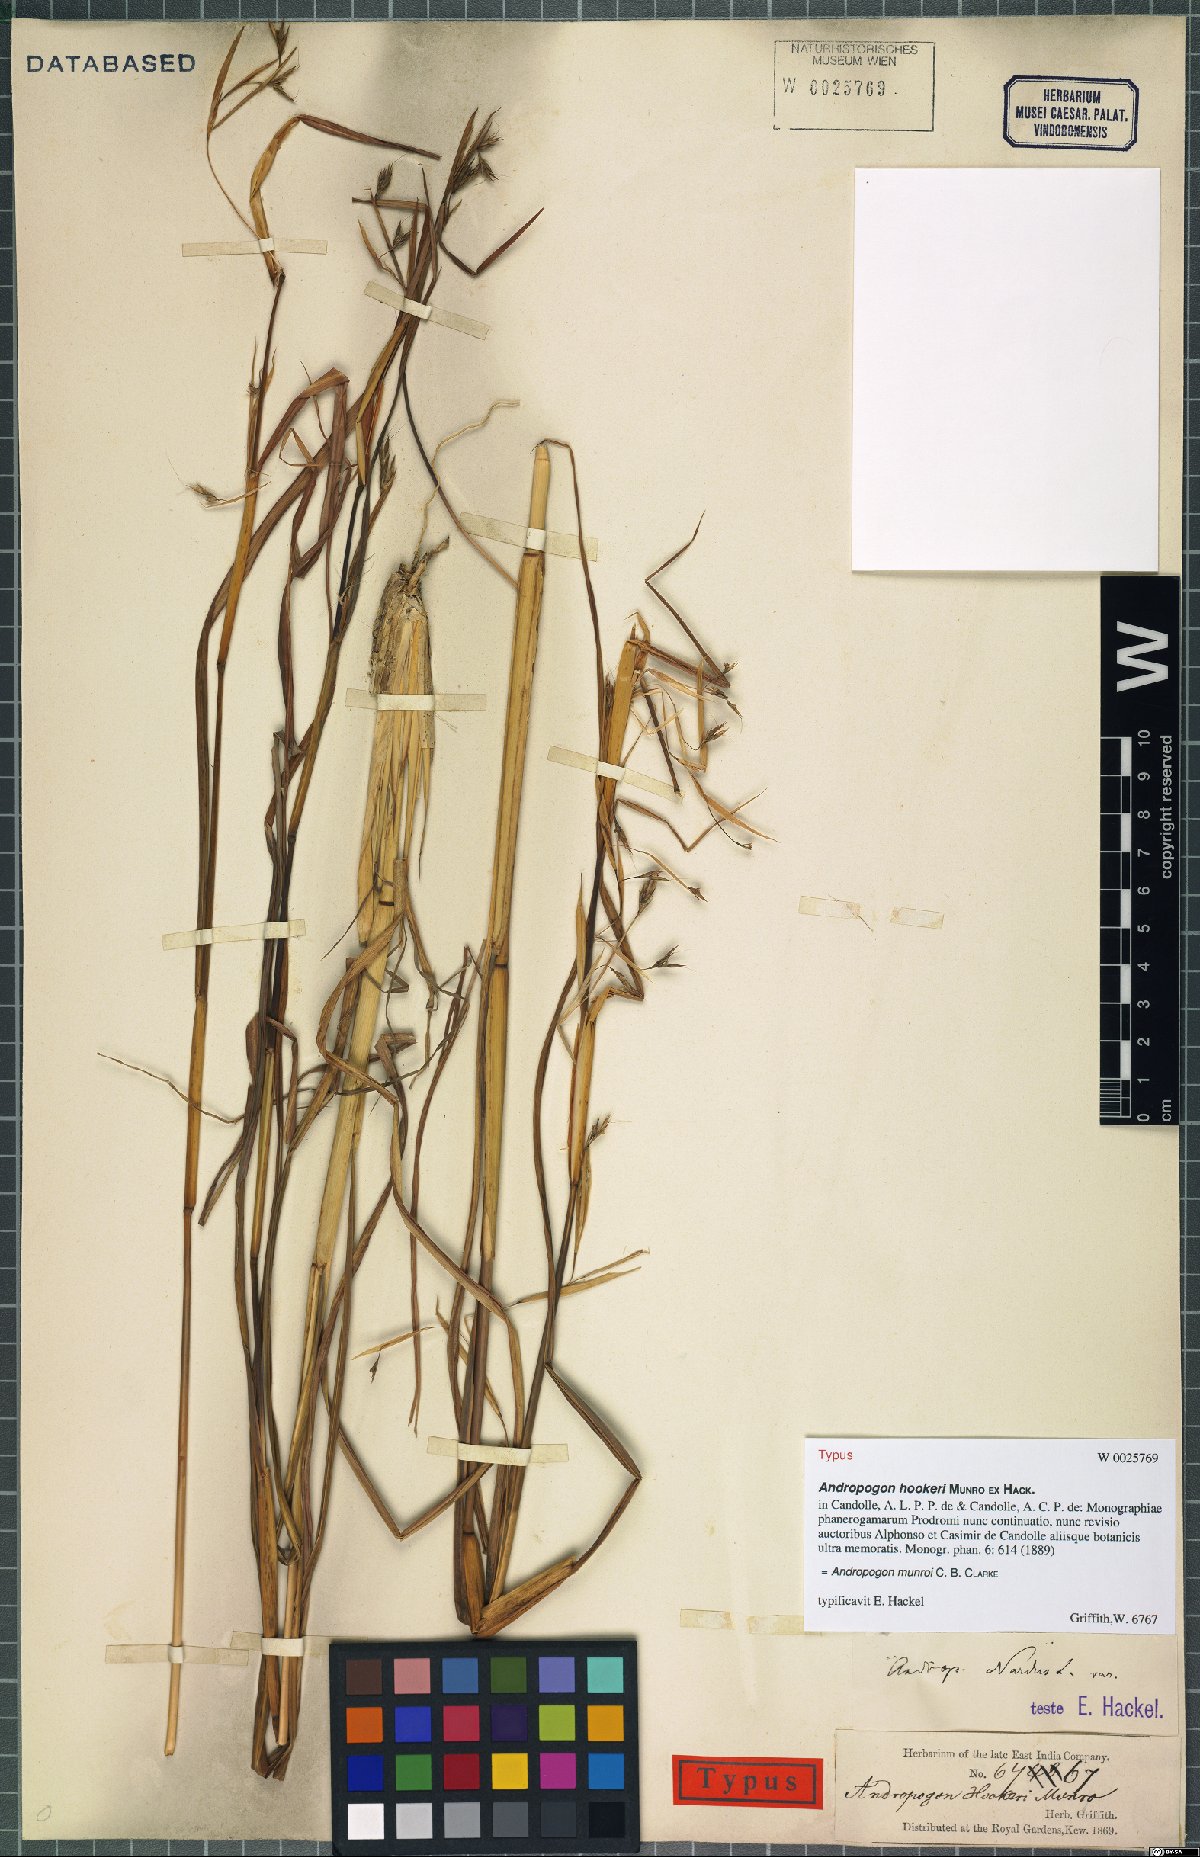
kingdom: Plantae
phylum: Tracheophyta
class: Liliopsida
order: Poales
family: Poaceae
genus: Andropogon
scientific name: Andropogon munroi
